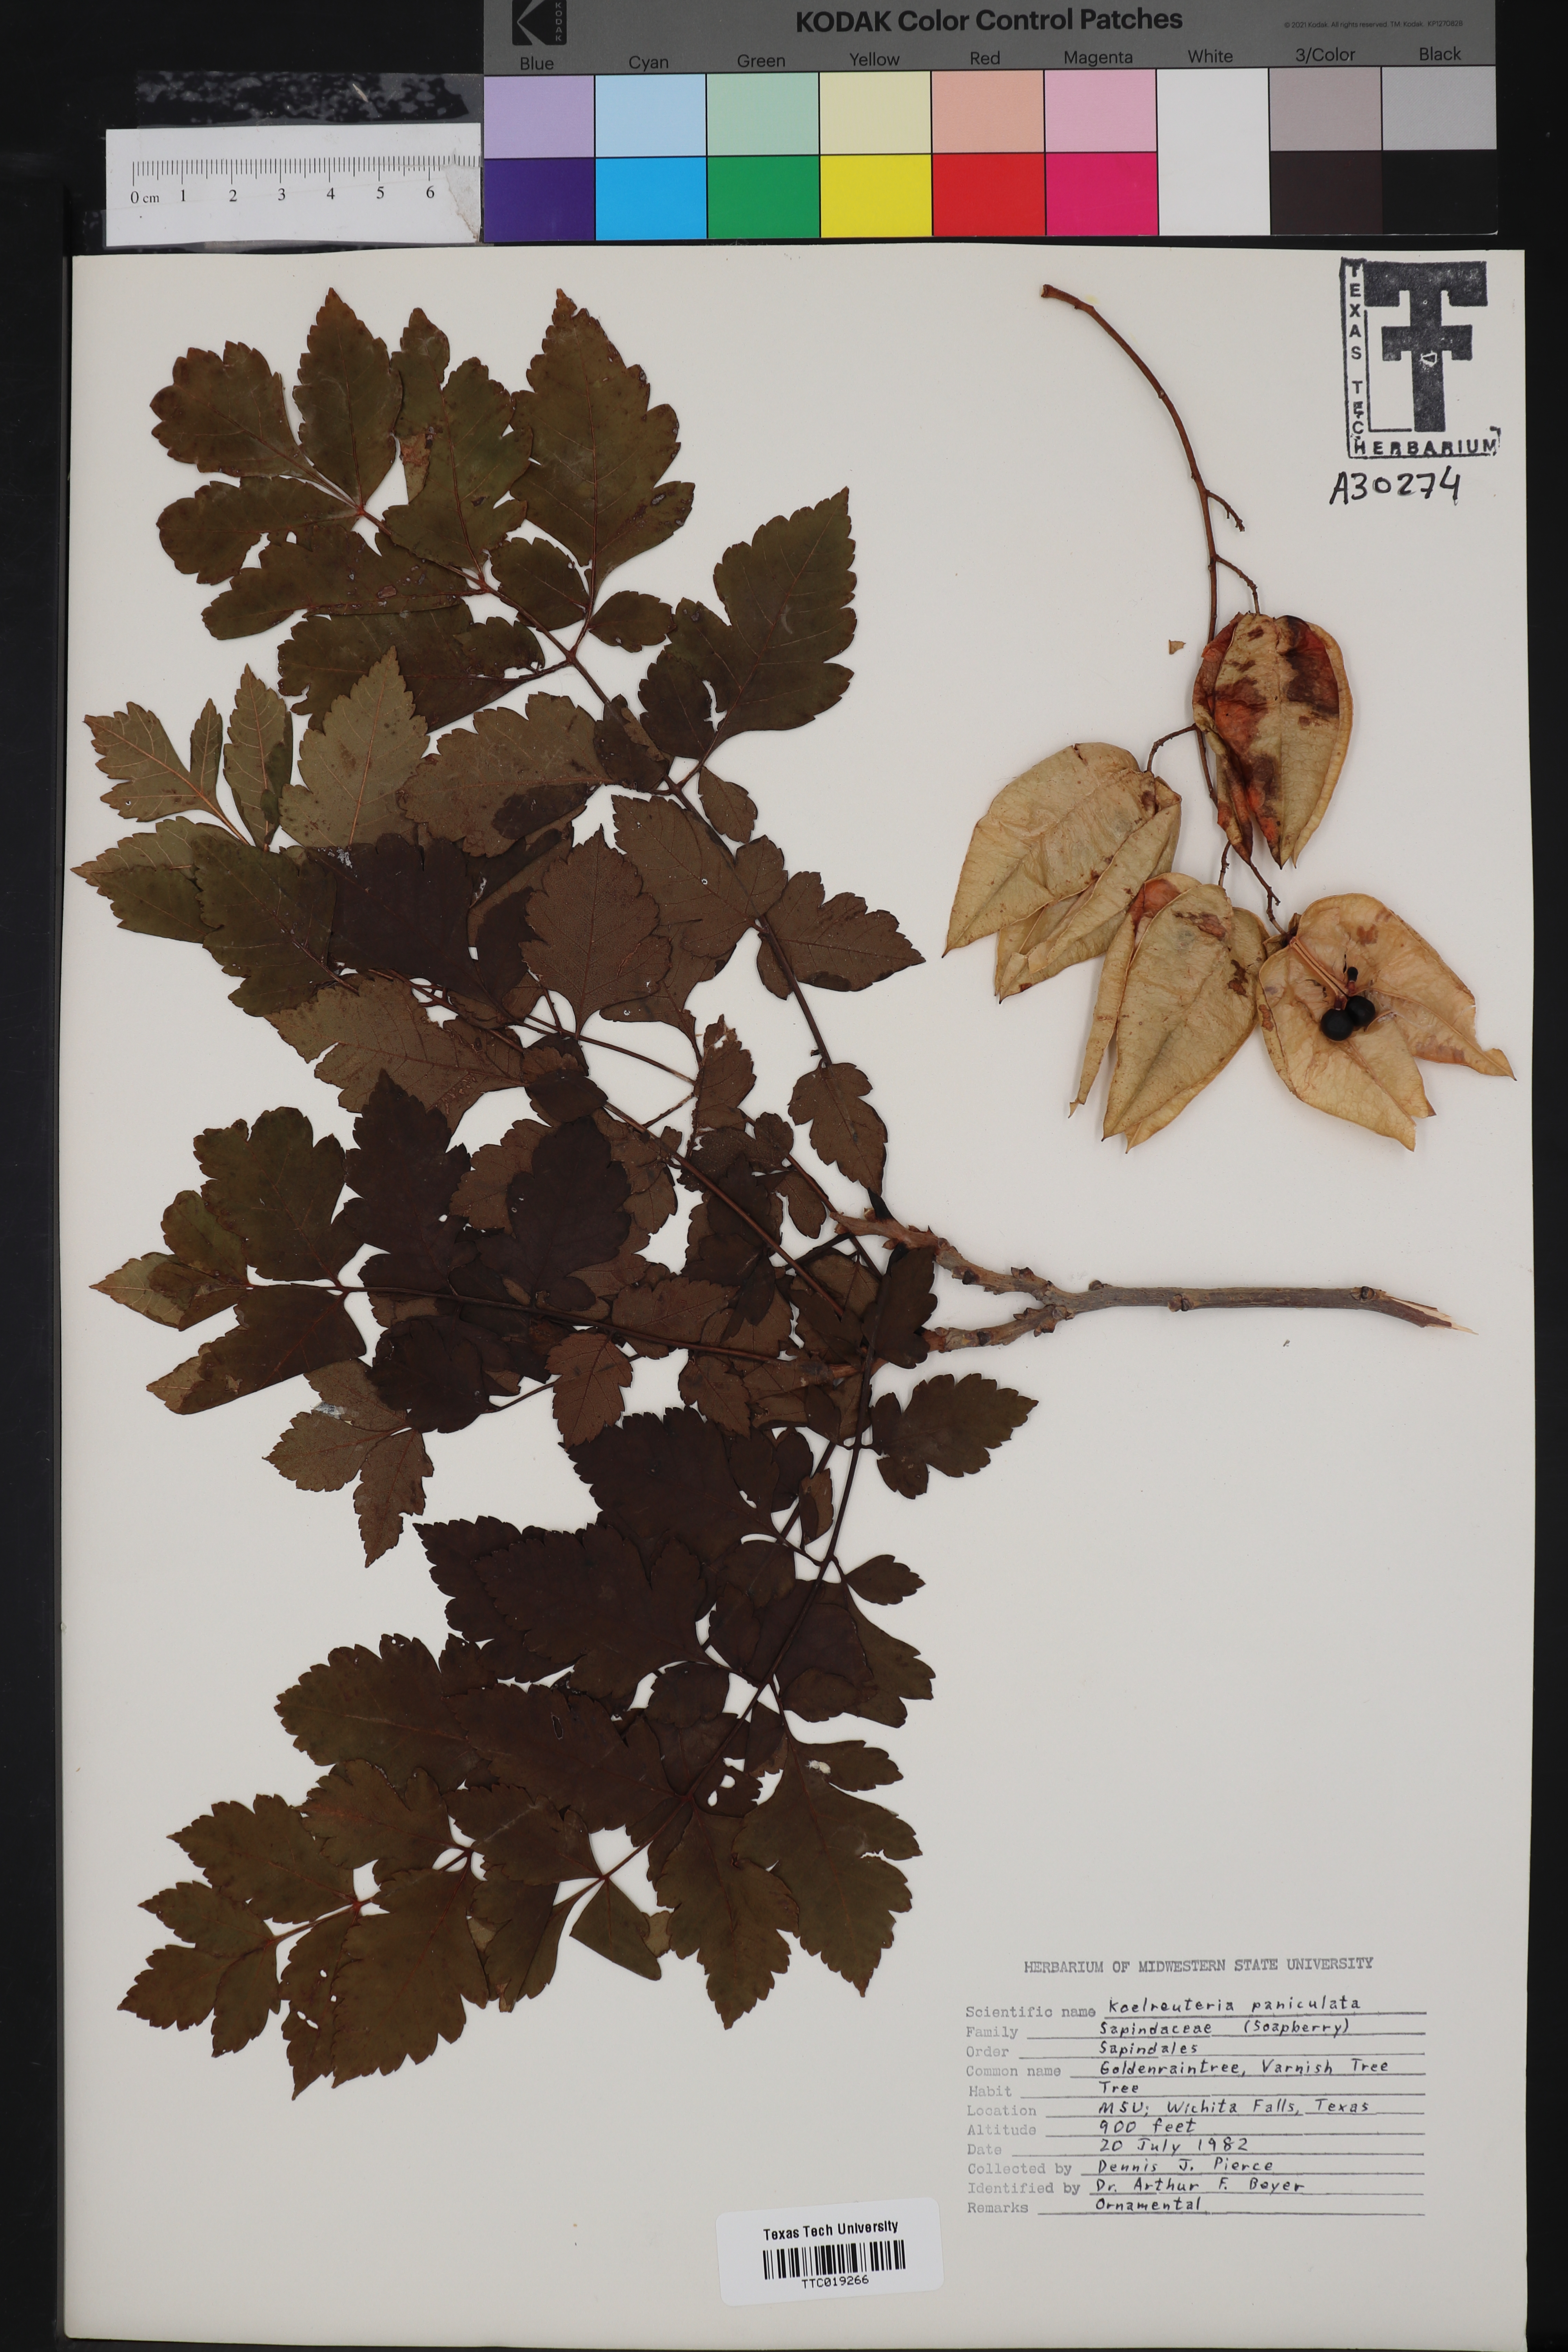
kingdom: Plantae
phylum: Tracheophyta
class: Magnoliopsida
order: Sapindales
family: Sapindaceae
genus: Koelreuteria
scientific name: Koelreuteria paniculata
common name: Pride-of-india
